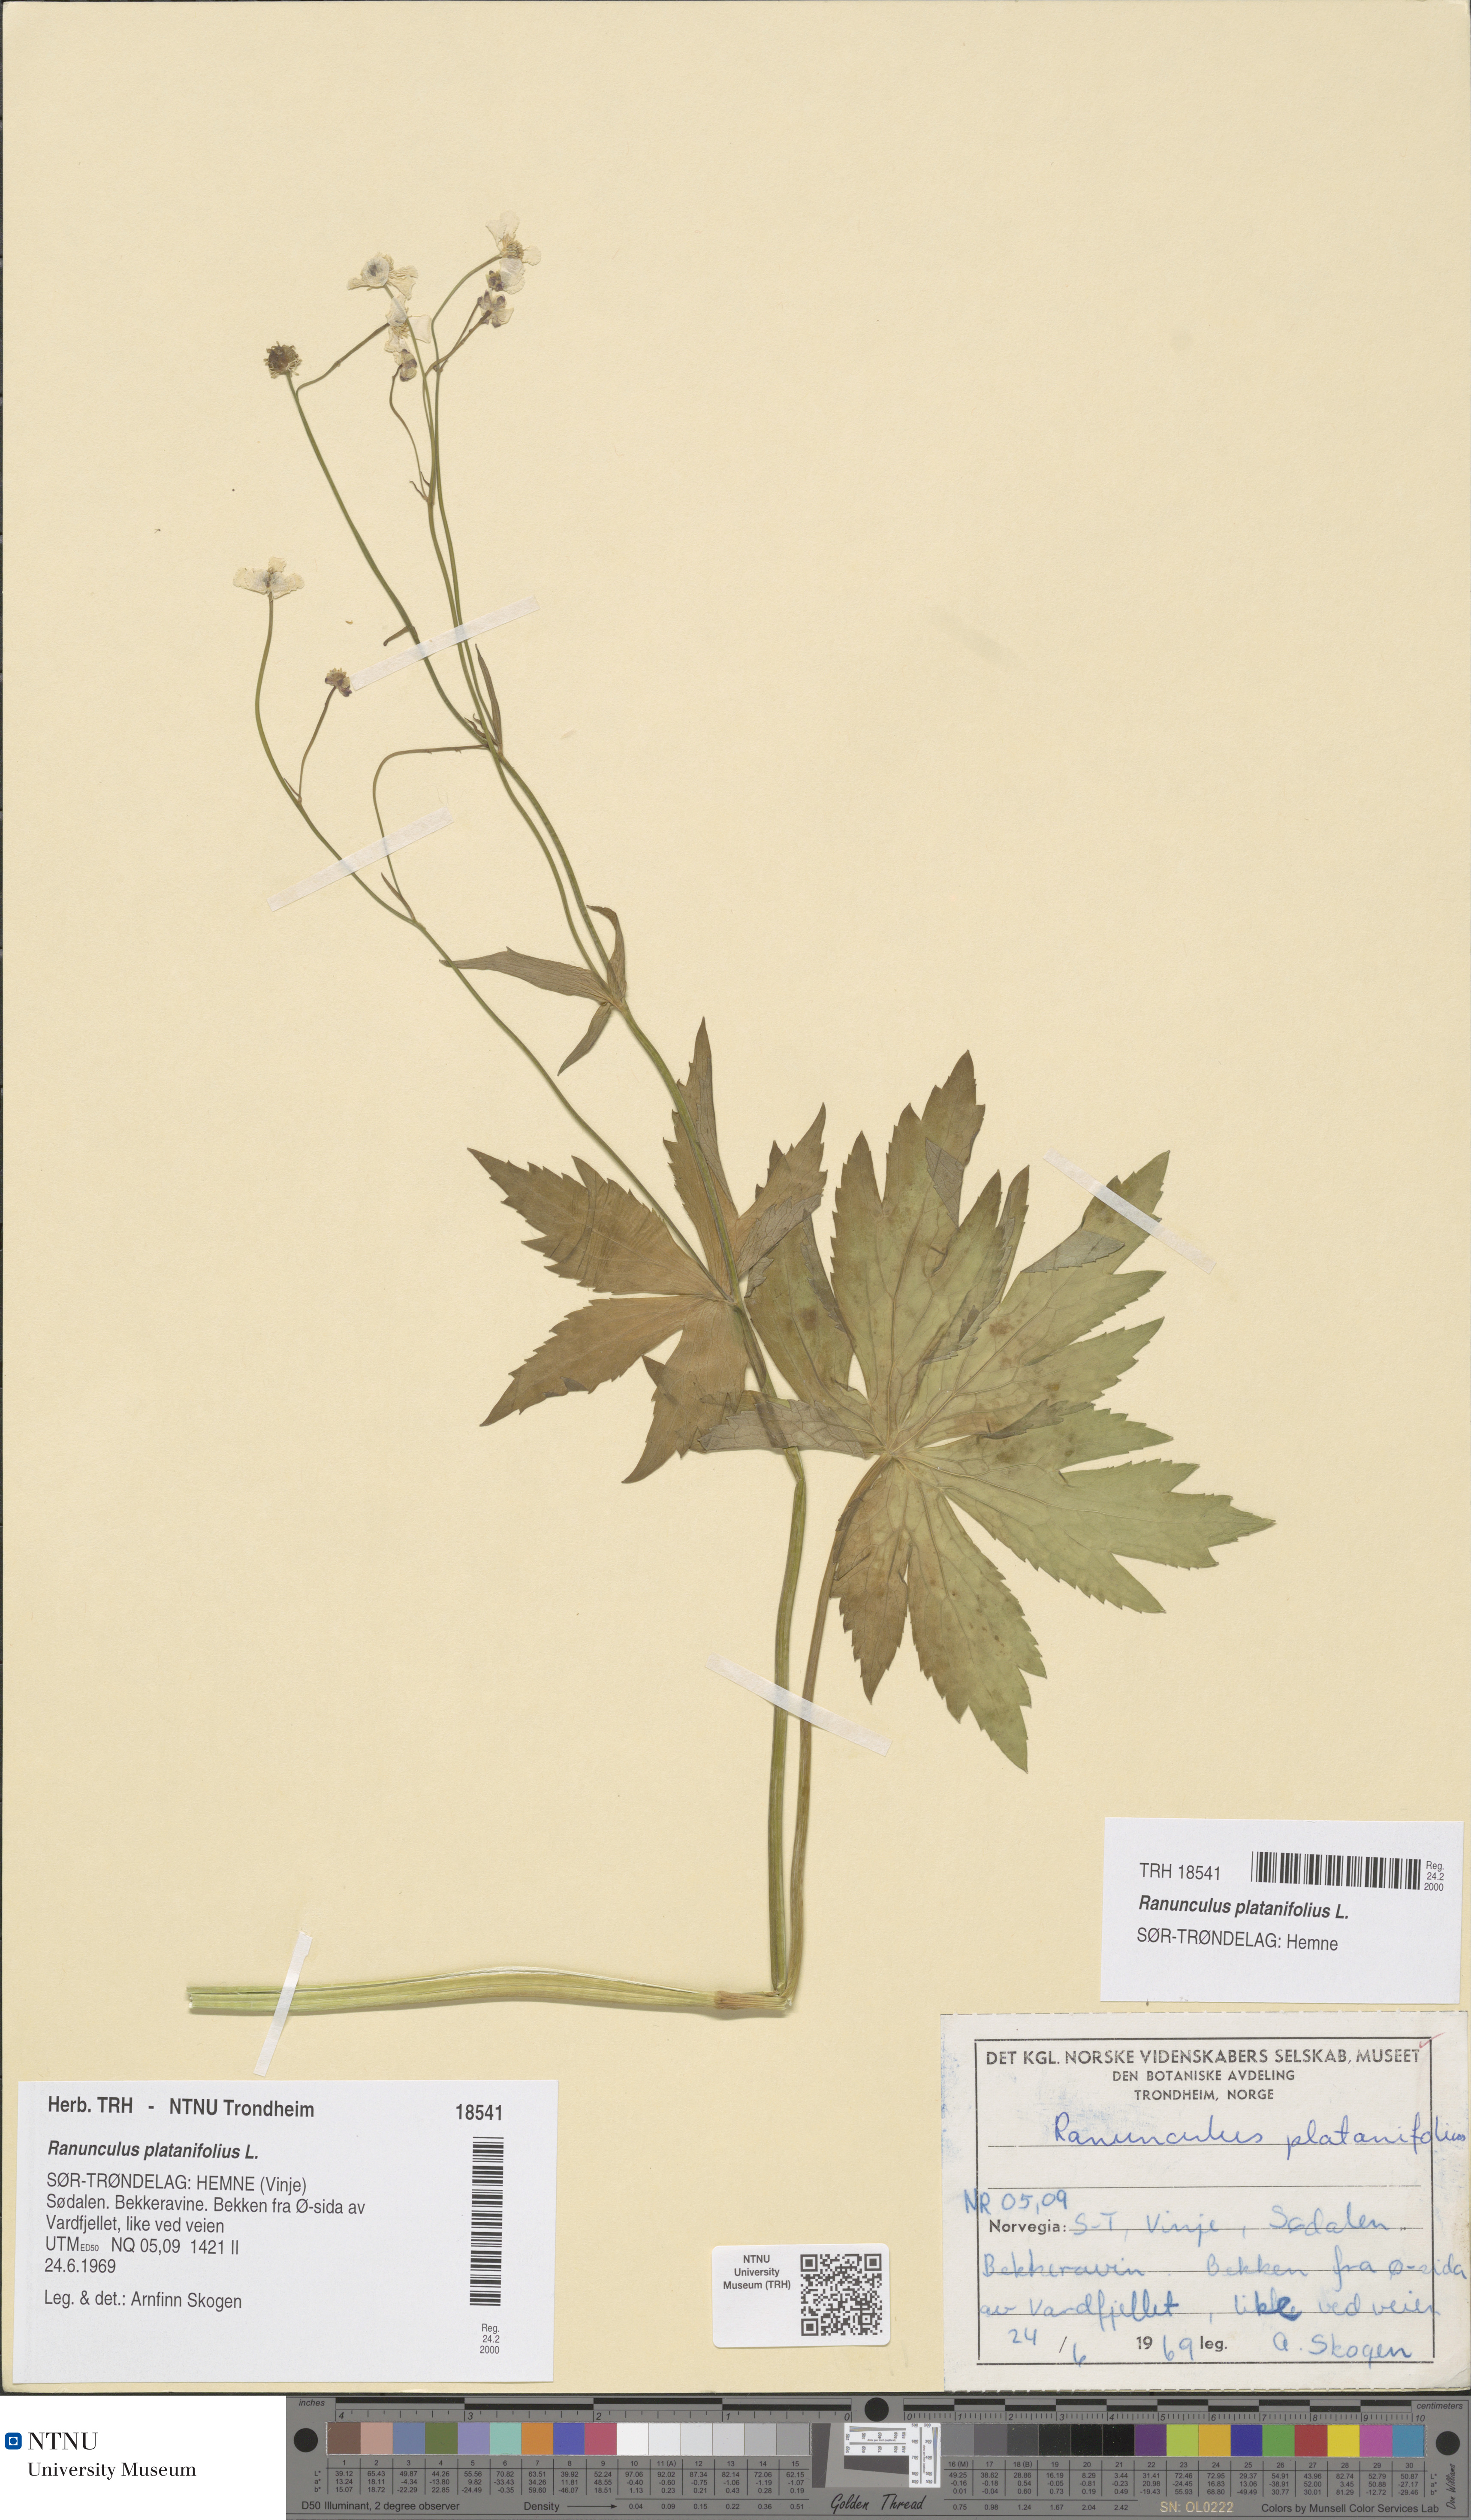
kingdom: Plantae
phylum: Tracheophyta
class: Magnoliopsida
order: Ranunculales
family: Ranunculaceae
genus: Ranunculus
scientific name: Ranunculus platanifolius
